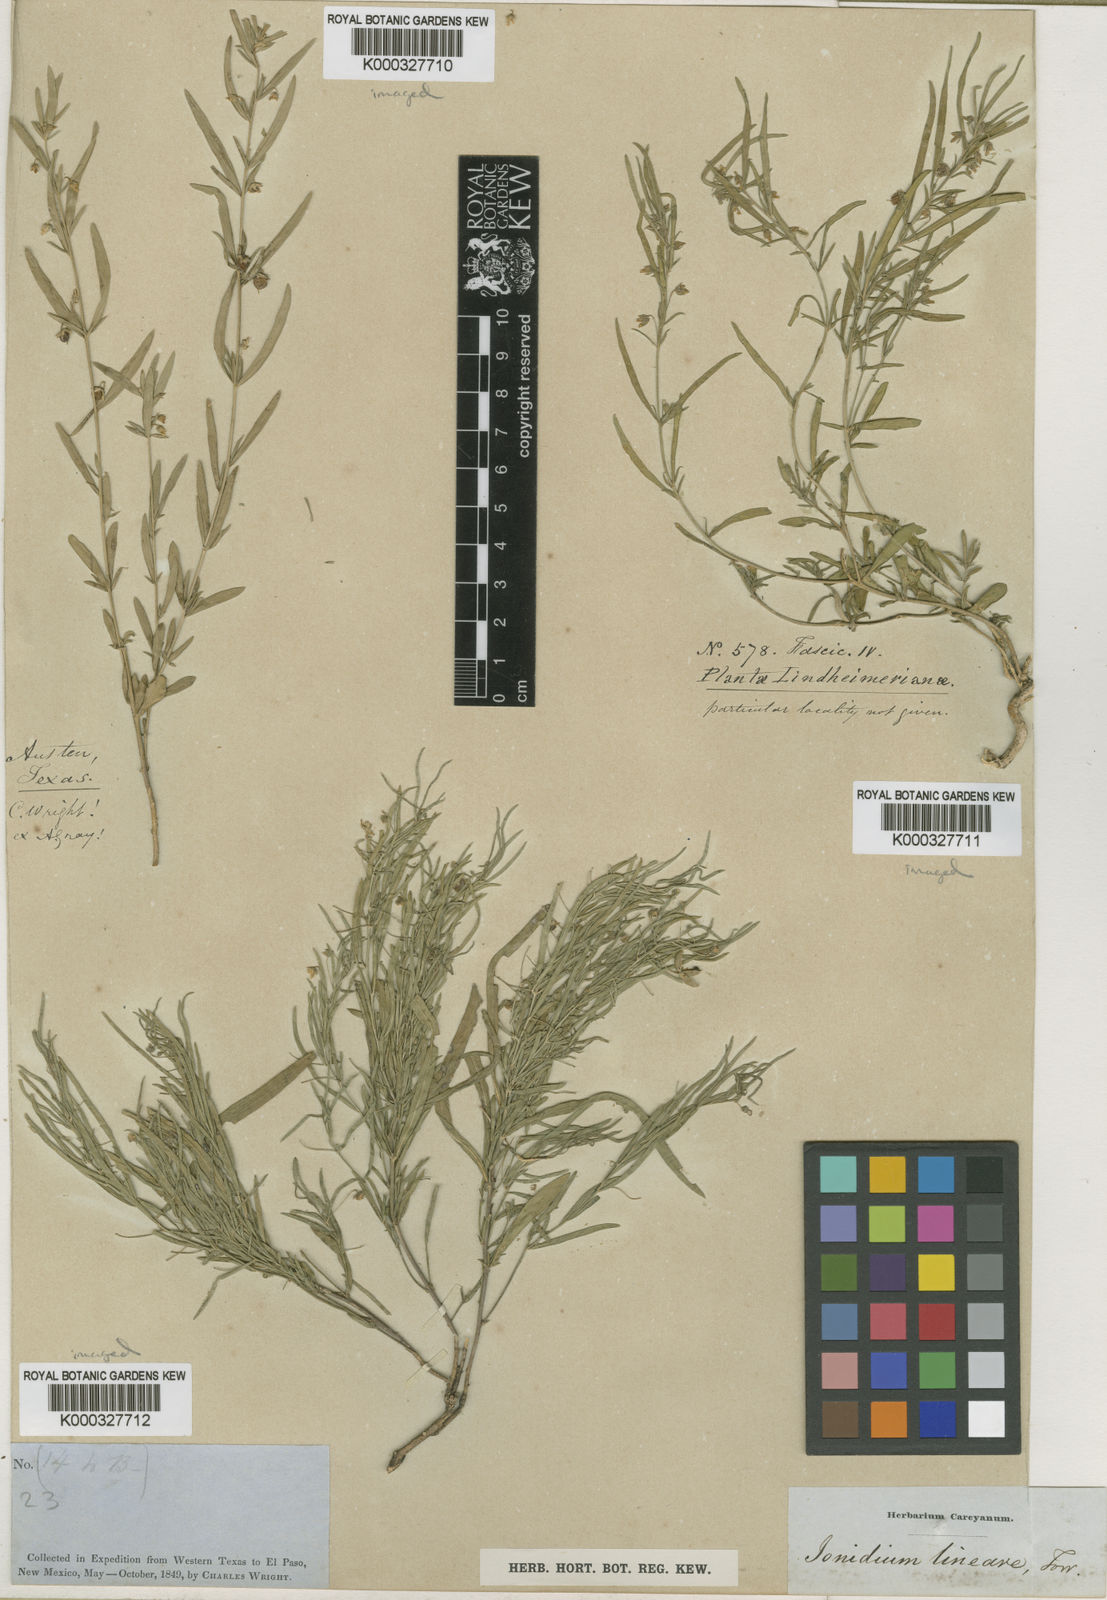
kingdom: Plantae
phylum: Tracheophyta
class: Magnoliopsida
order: Malpighiales
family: Violaceae
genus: Pombalia
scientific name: Pombalia verticillata
